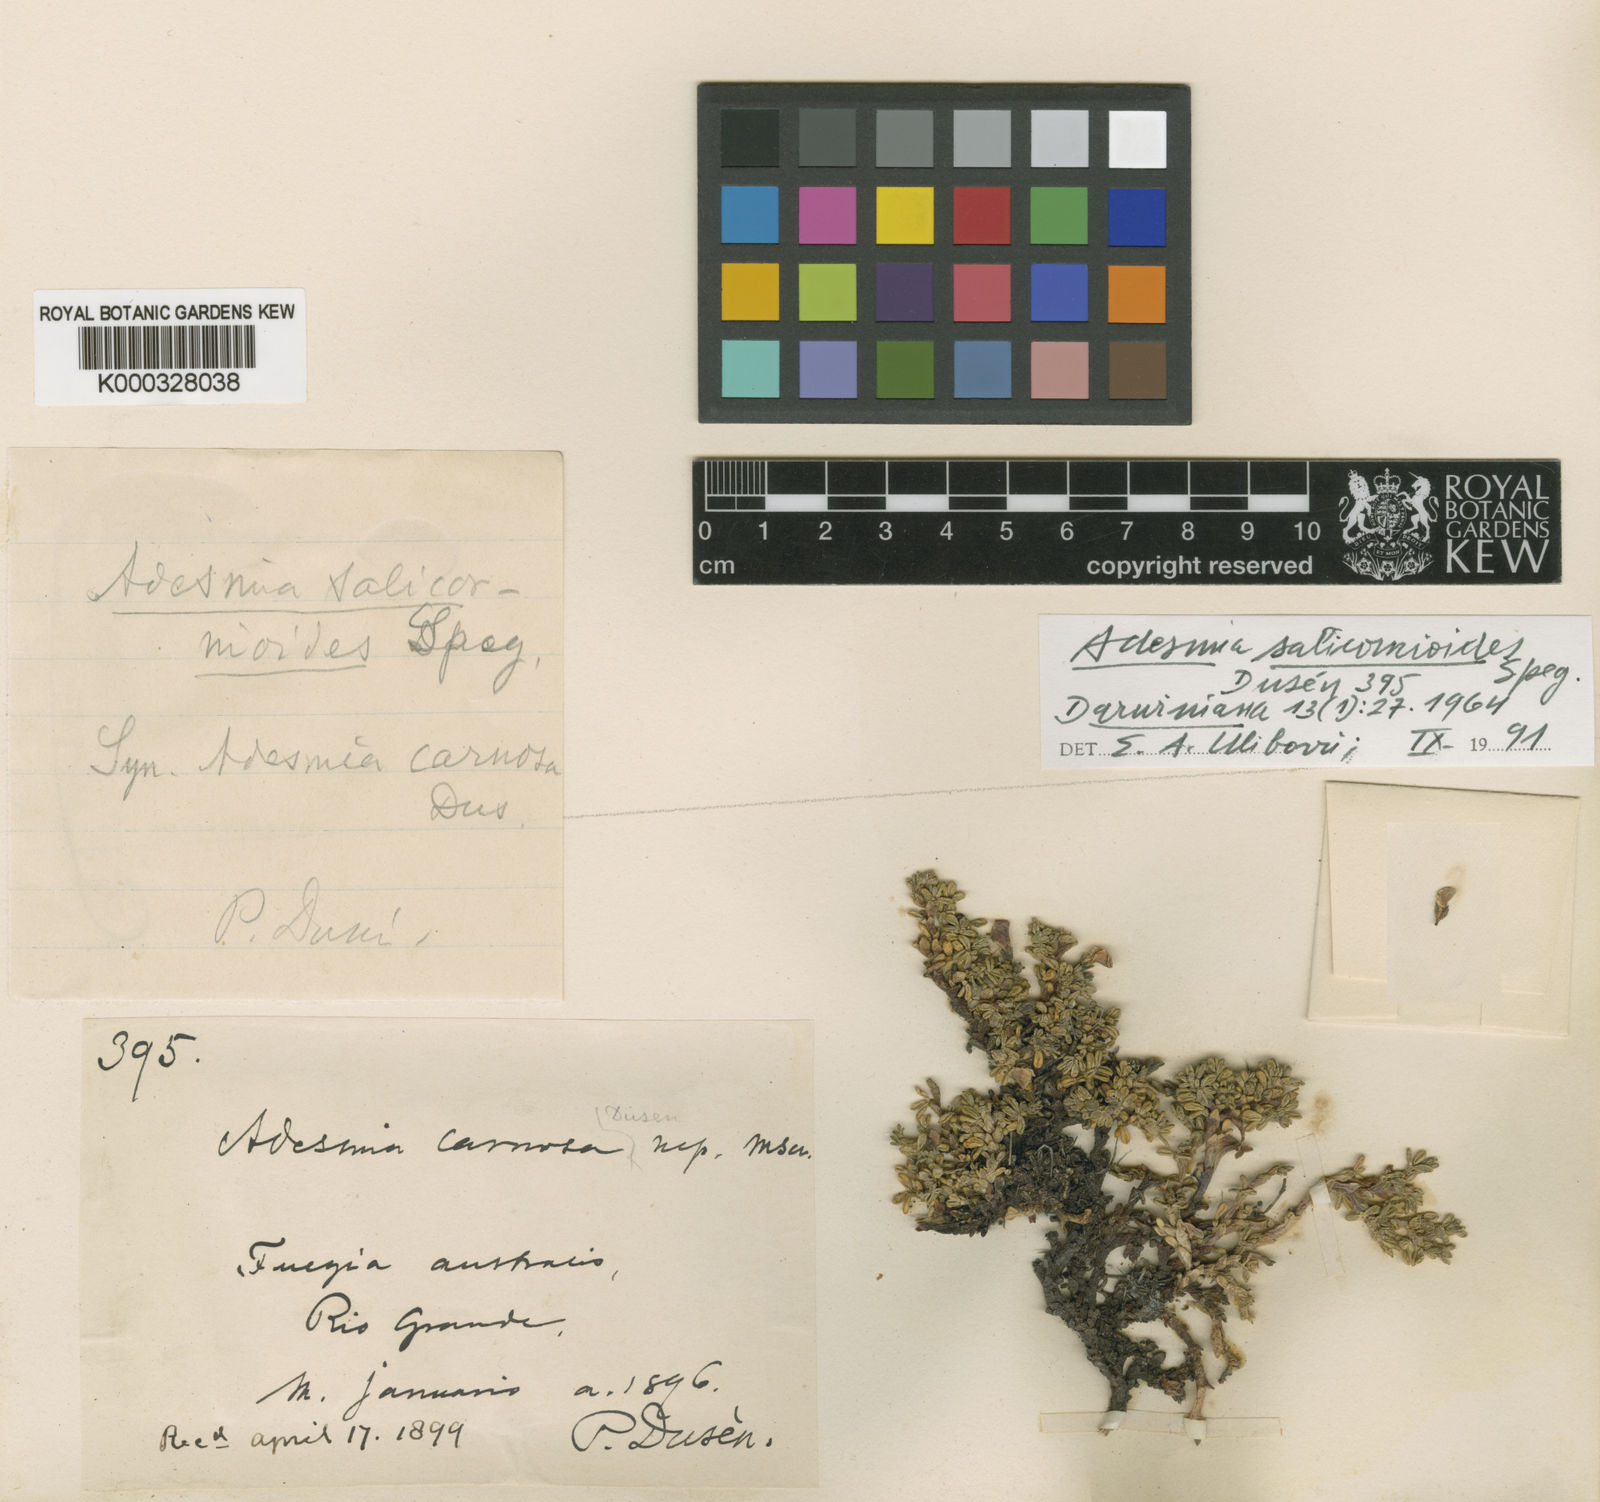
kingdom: Plantae
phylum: Tracheophyta
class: Magnoliopsida
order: Fabales
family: Fabaceae
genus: Adesmia
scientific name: Adesmia salicornioides
